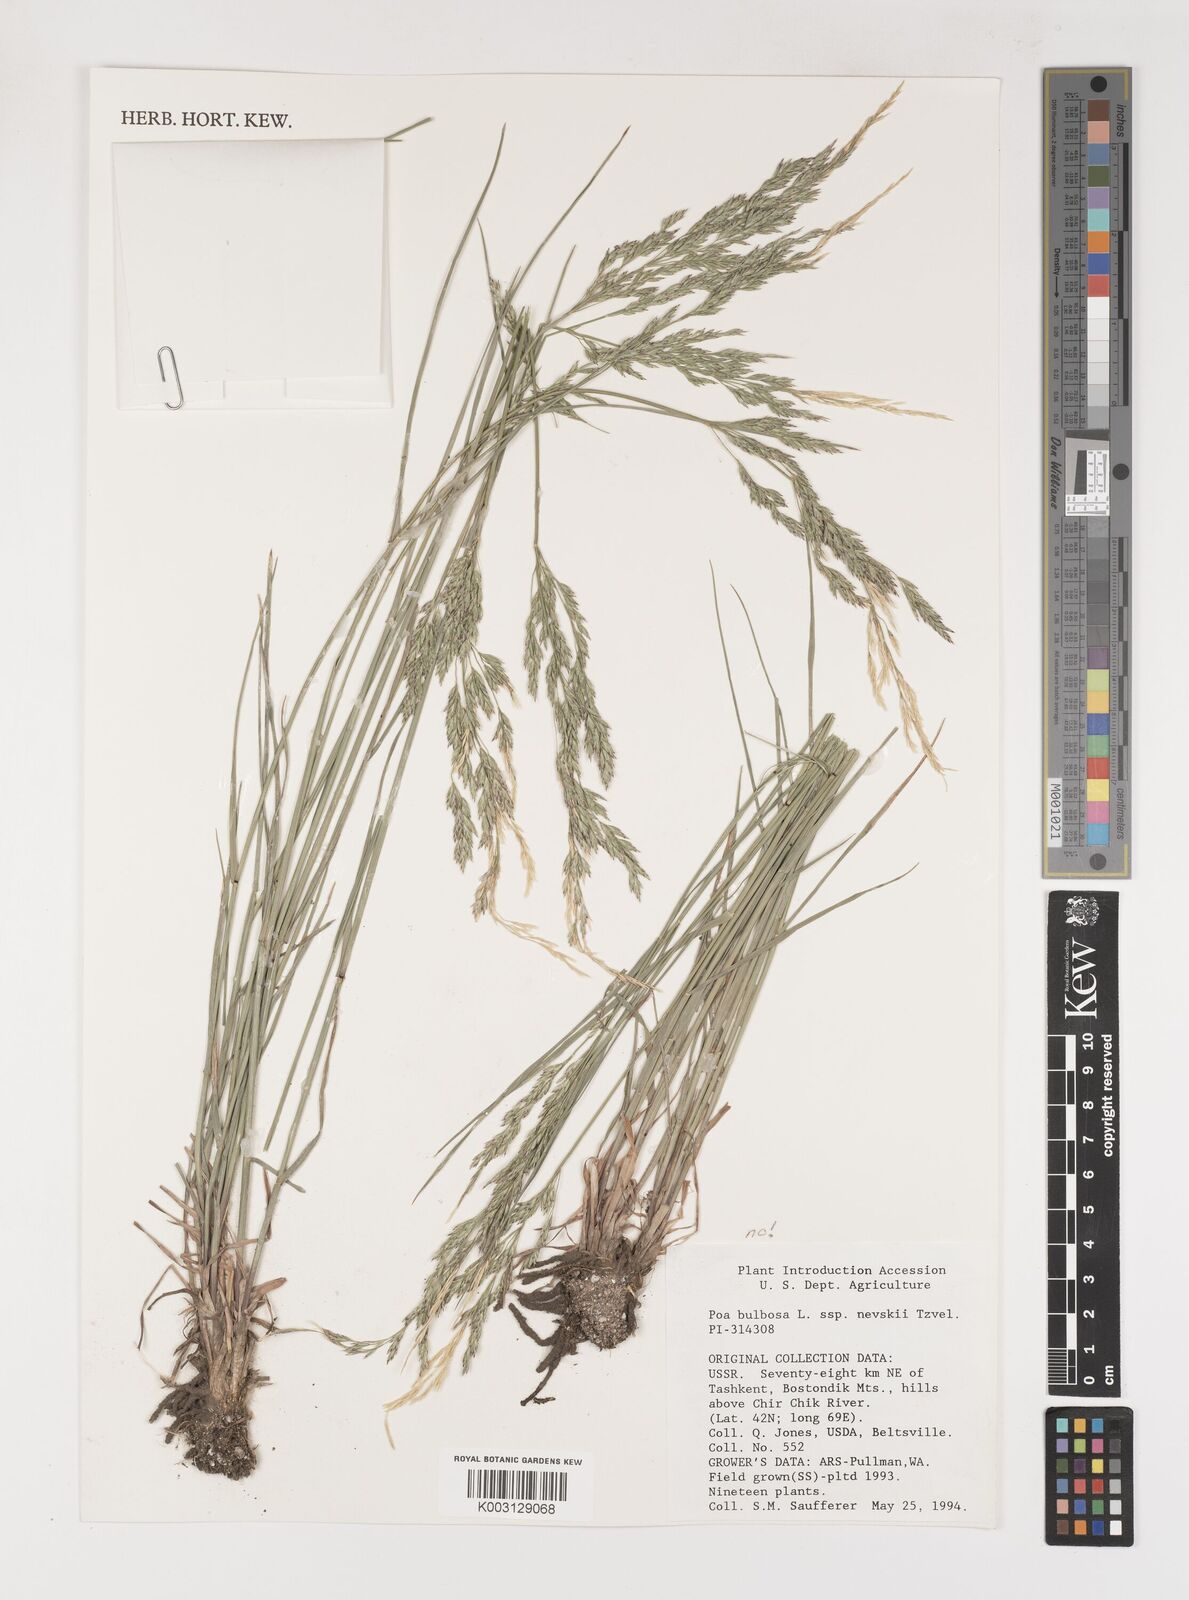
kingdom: Plantae
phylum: Tracheophyta
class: Liliopsida
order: Poales
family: Poaceae
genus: Poa
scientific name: Poa bulbosa
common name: Bulbous bluegrass
